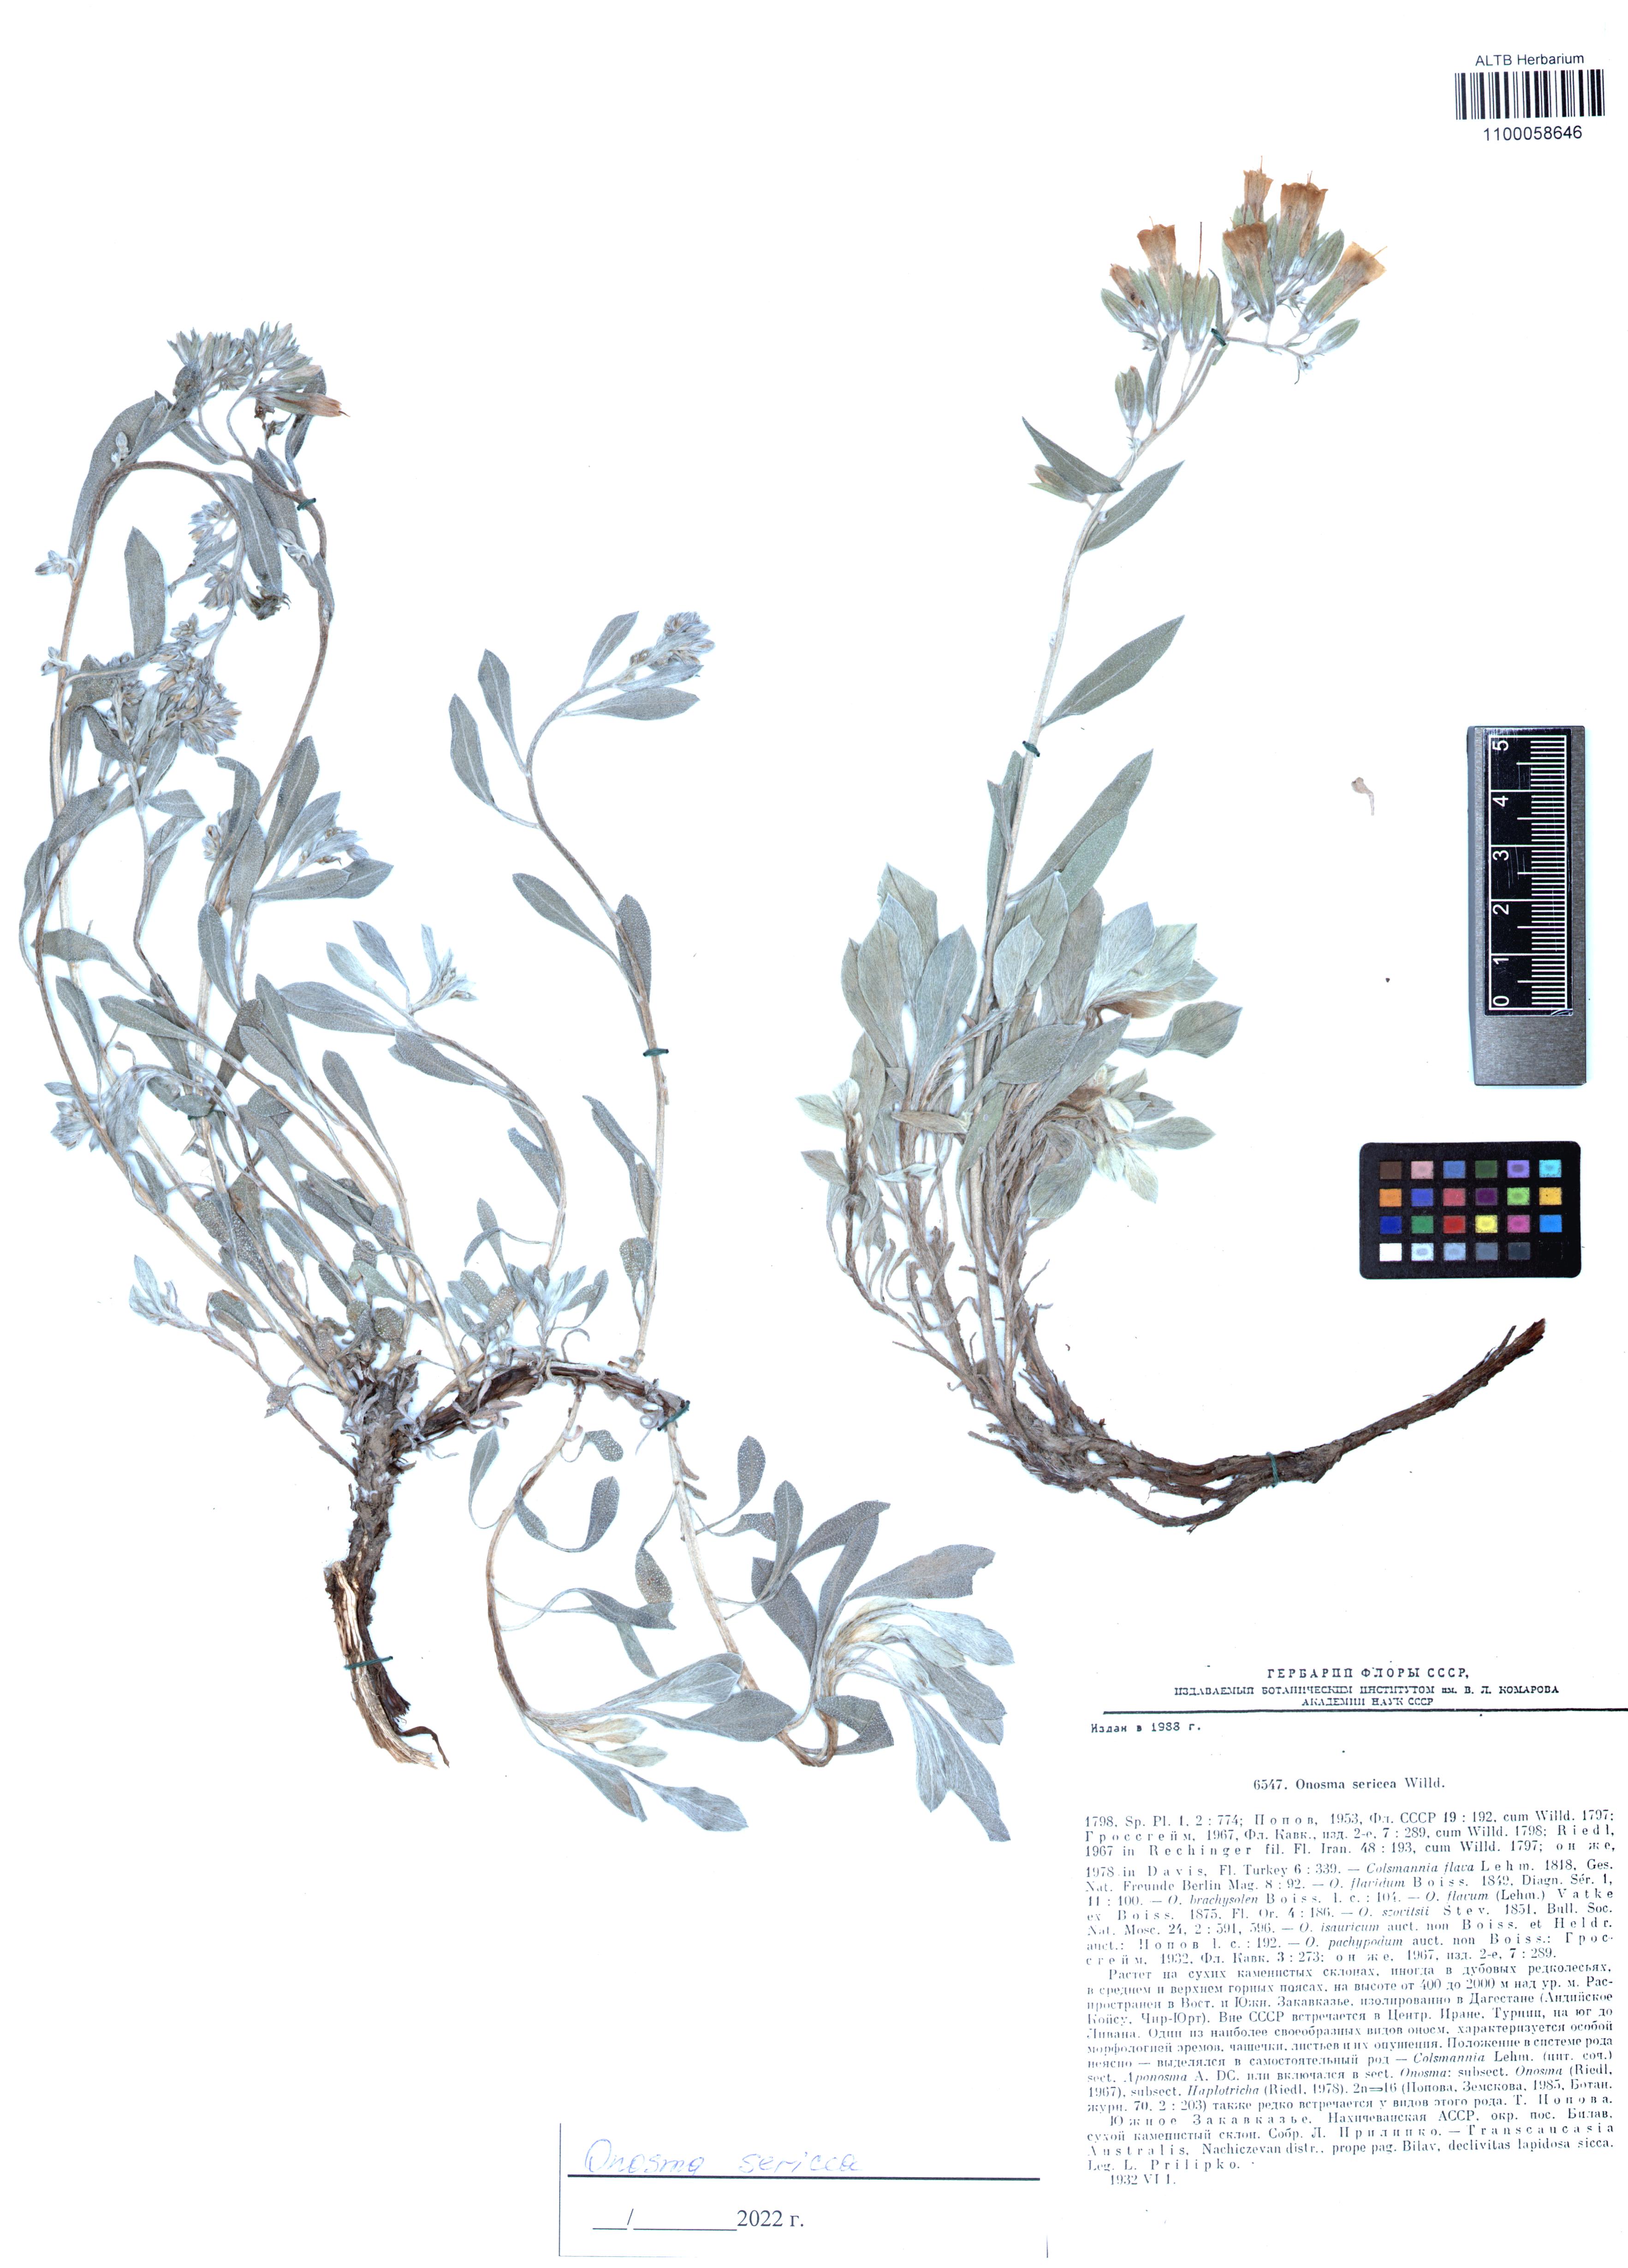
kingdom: Plantae
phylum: Tracheophyta
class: Magnoliopsida
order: Boraginales
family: Boraginaceae
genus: Onosma
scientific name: Onosma sericea
